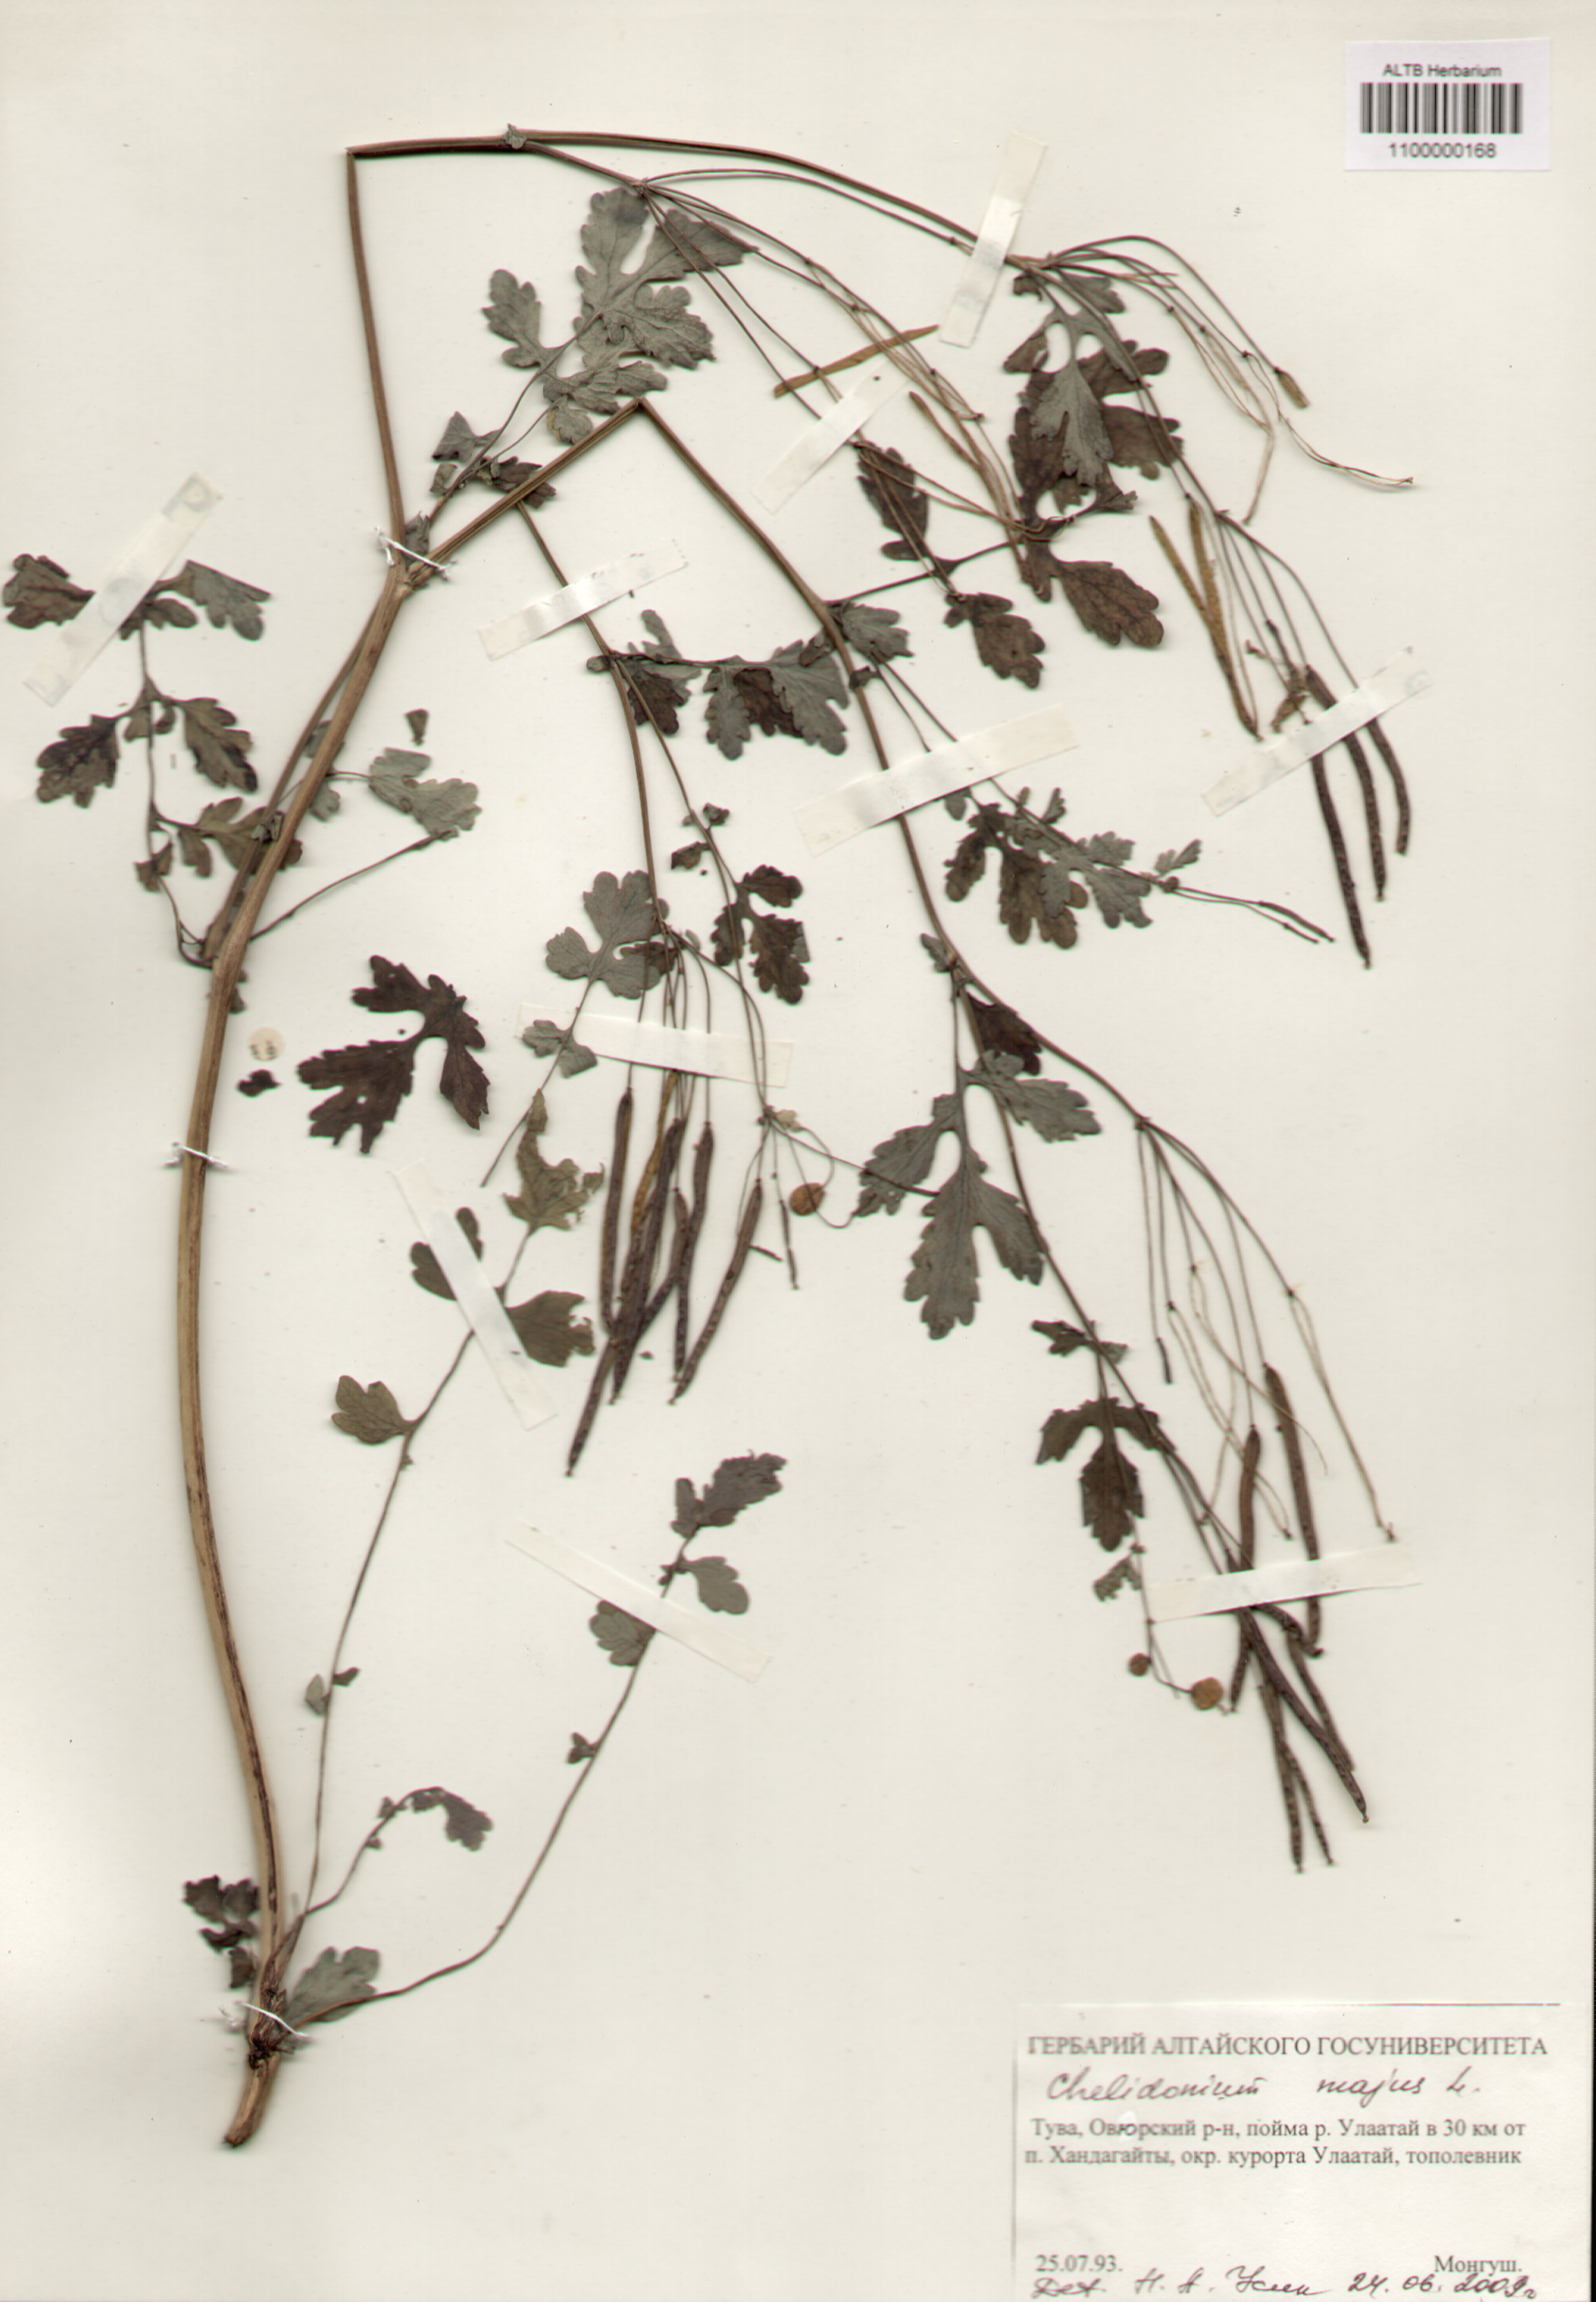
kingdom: Plantae
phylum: Tracheophyta
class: Magnoliopsida
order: Ranunculales
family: Papaveraceae
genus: Chelidonium
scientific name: Chelidonium majus
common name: Greater celandine
